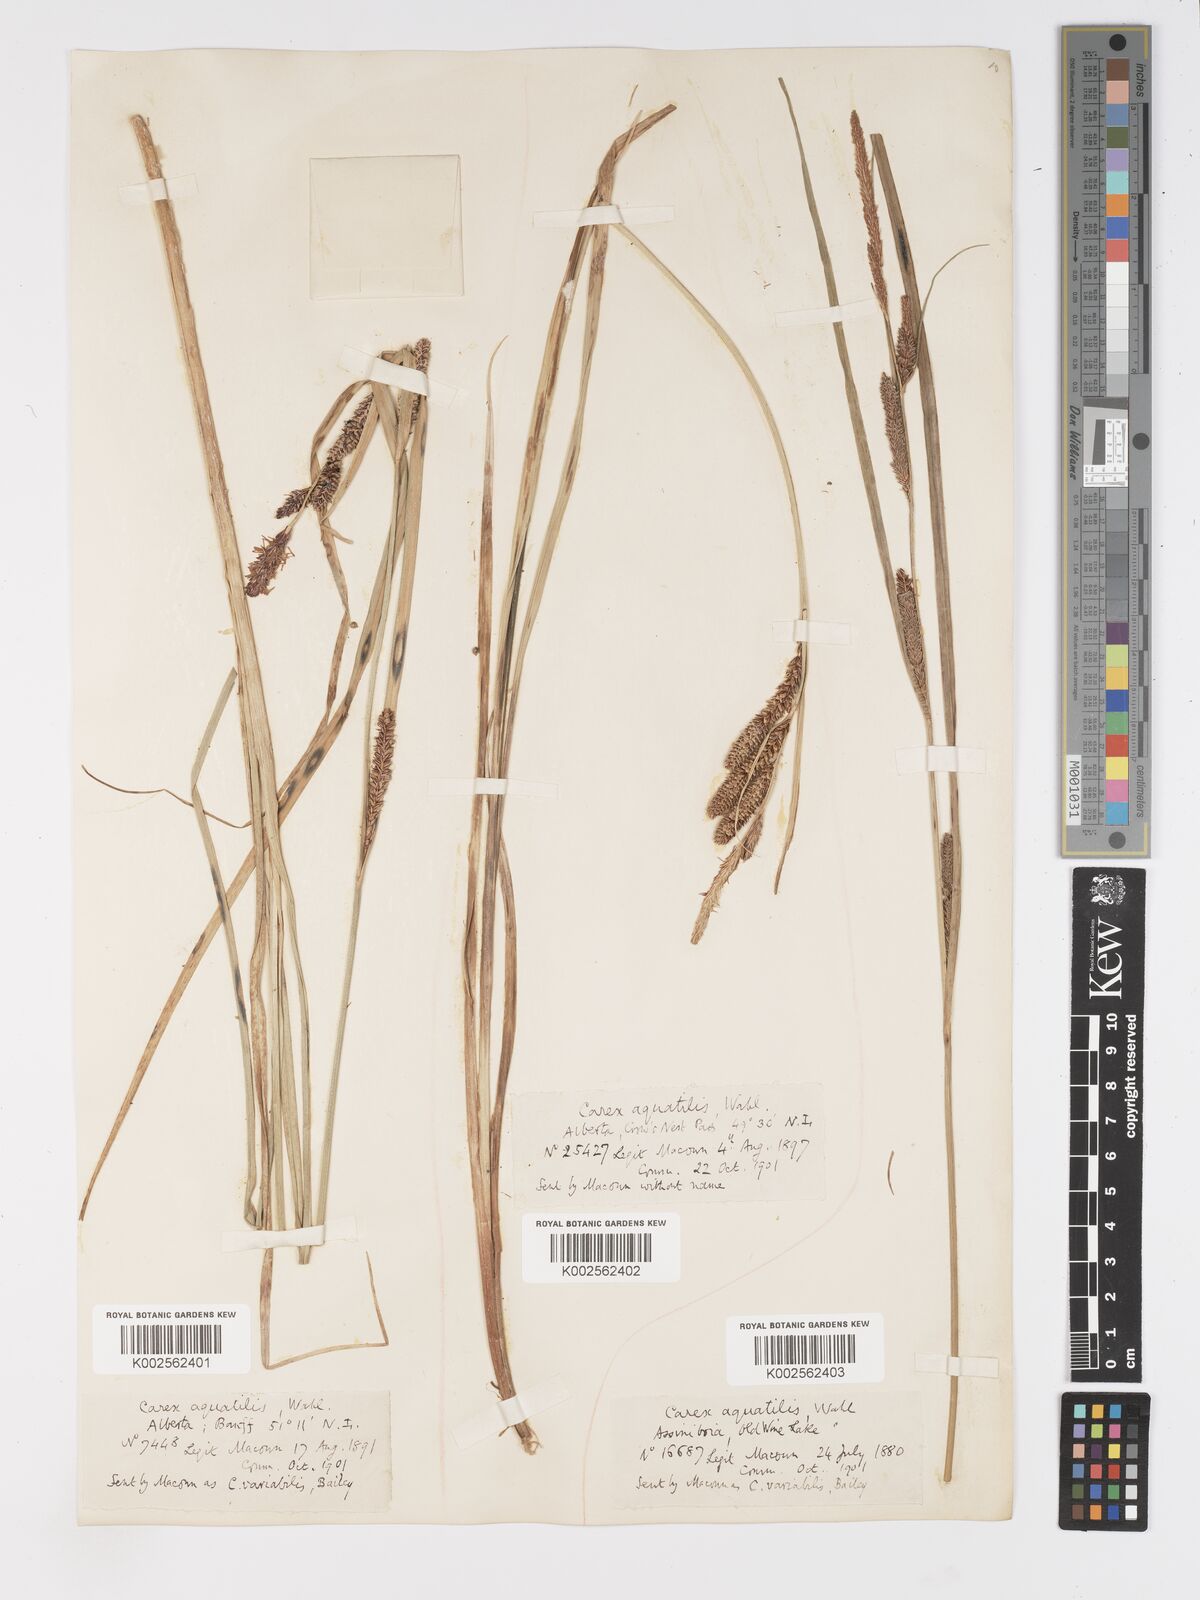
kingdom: Plantae
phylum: Tracheophyta
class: Liliopsida
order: Poales
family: Cyperaceae
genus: Carex
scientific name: Carex aquatilis
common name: Water sedge
